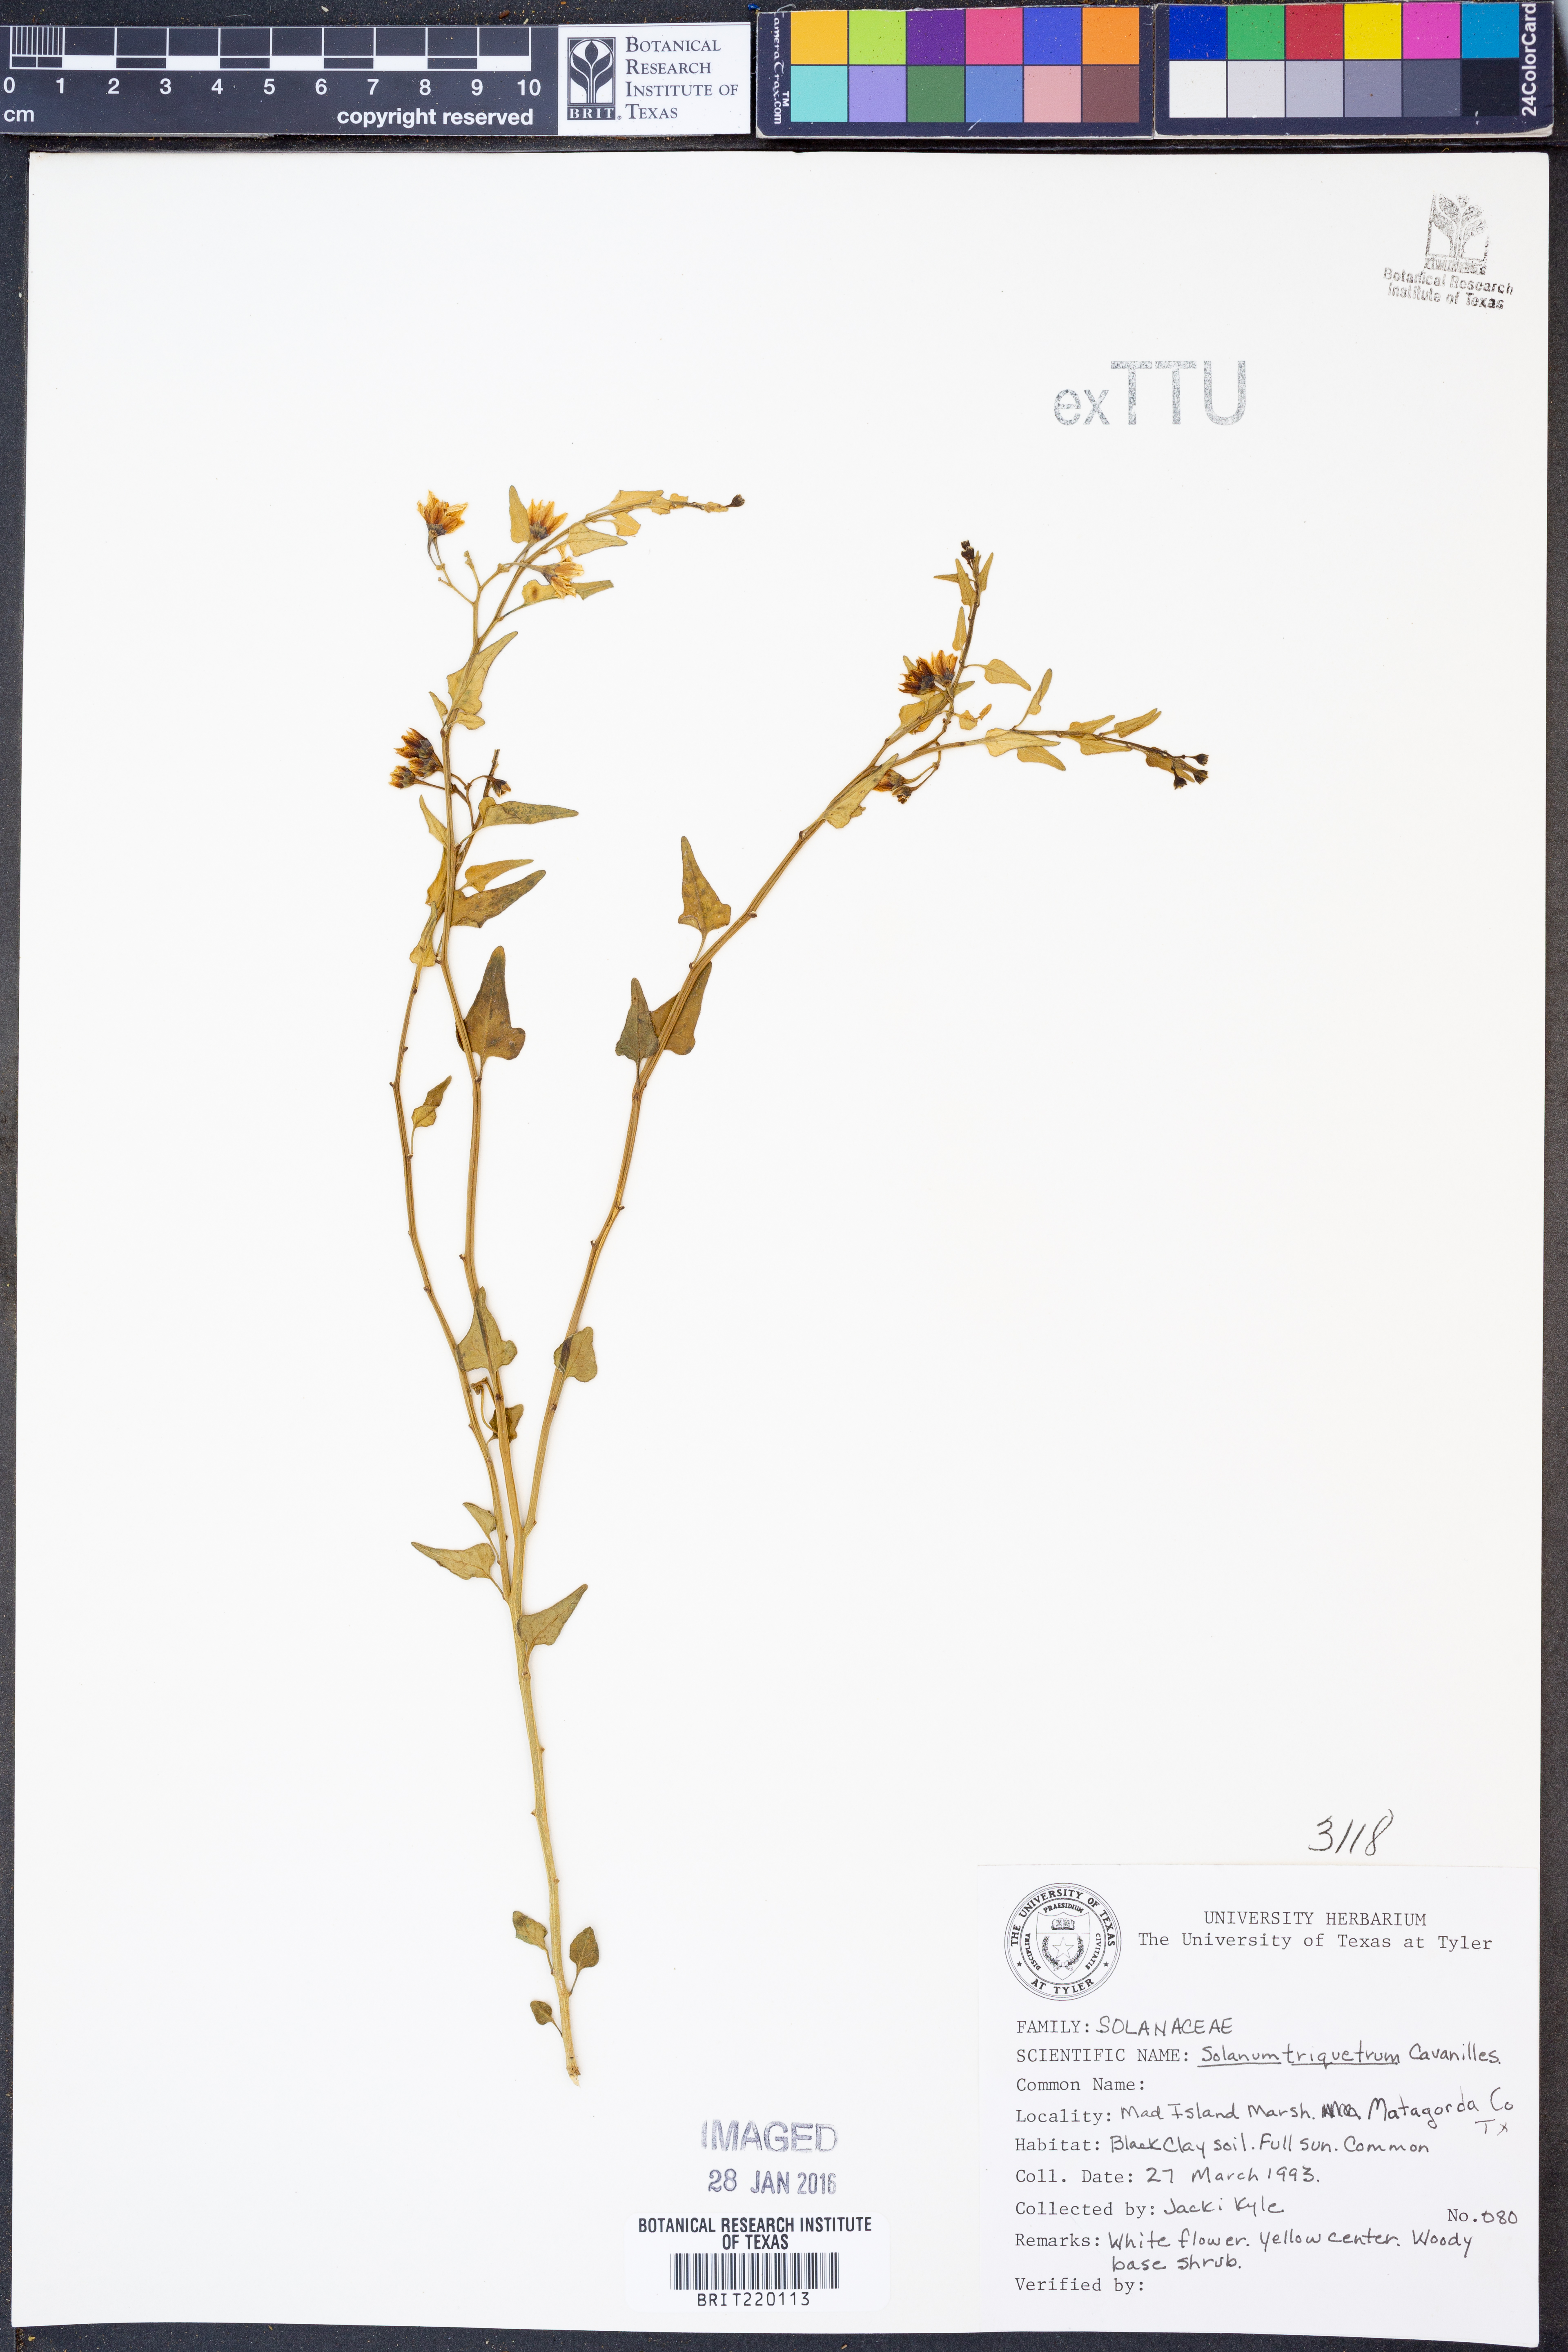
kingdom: Plantae
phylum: Tracheophyta
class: Magnoliopsida
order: Solanales
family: Solanaceae
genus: Solanum
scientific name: Solanum triquetrum
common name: Texas nightshade
